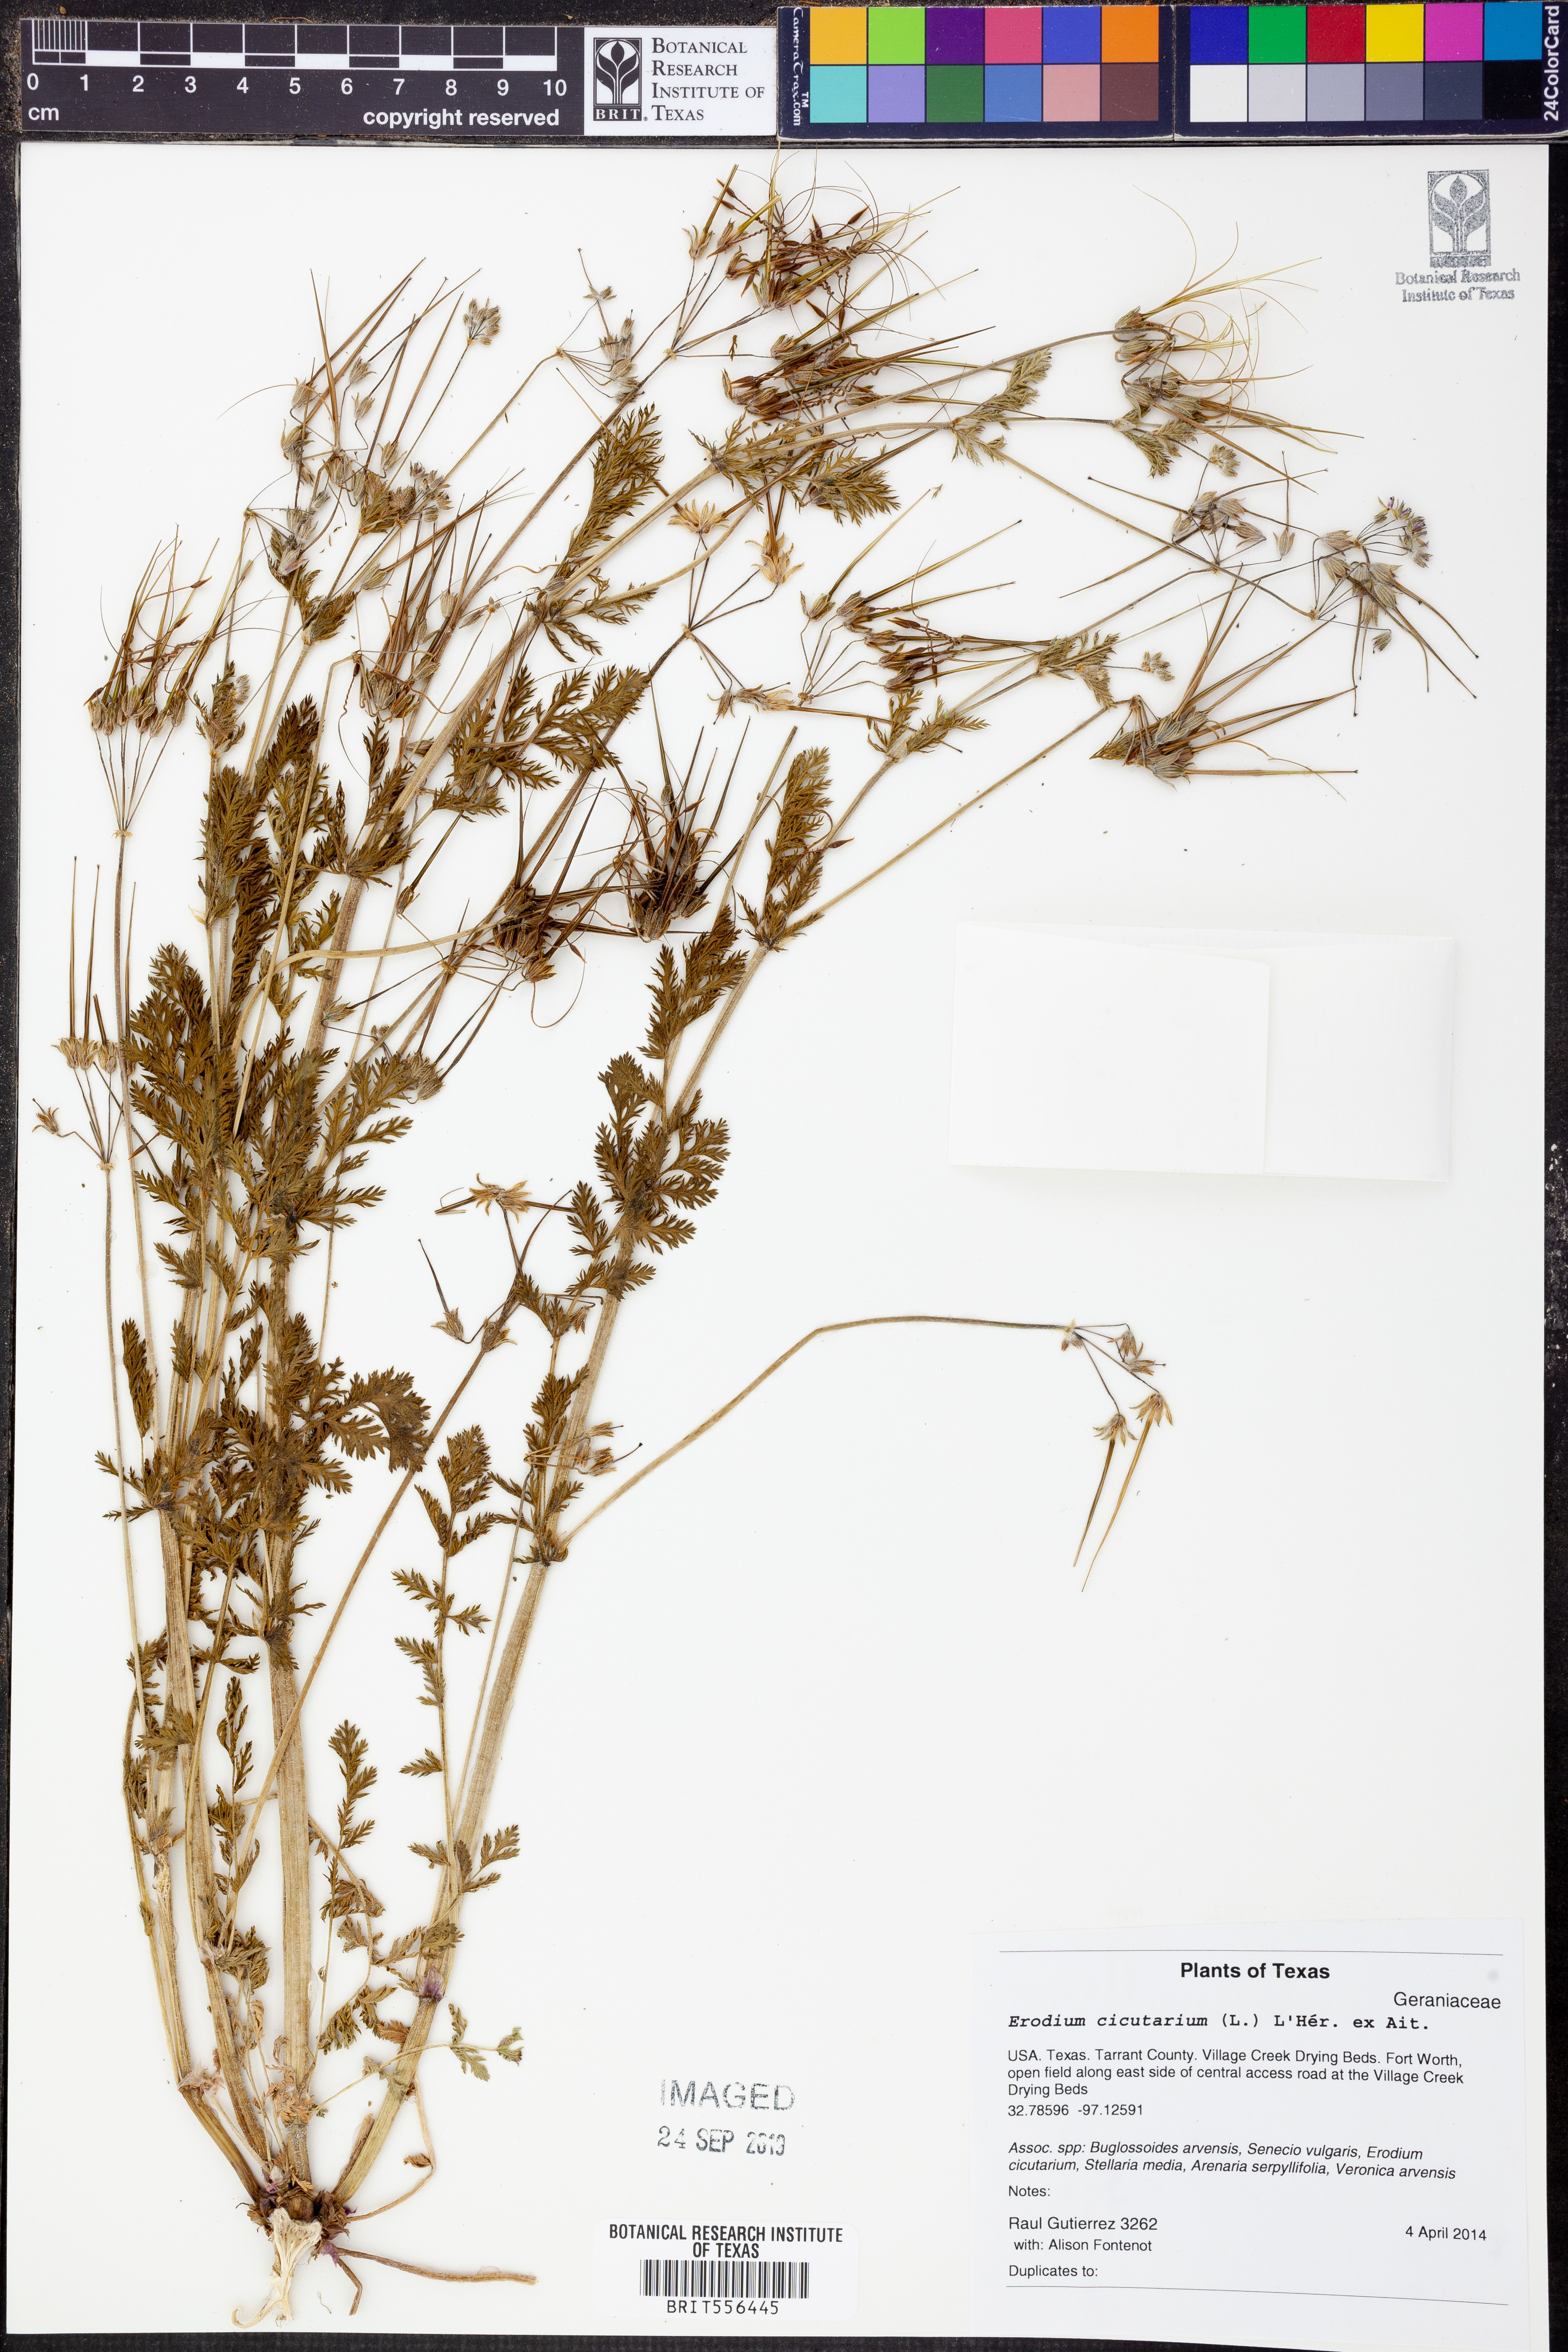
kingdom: Plantae
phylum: Tracheophyta
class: Magnoliopsida
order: Geraniales
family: Geraniaceae
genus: Erodium
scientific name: Erodium cicutarium
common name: Common stork's-bill
